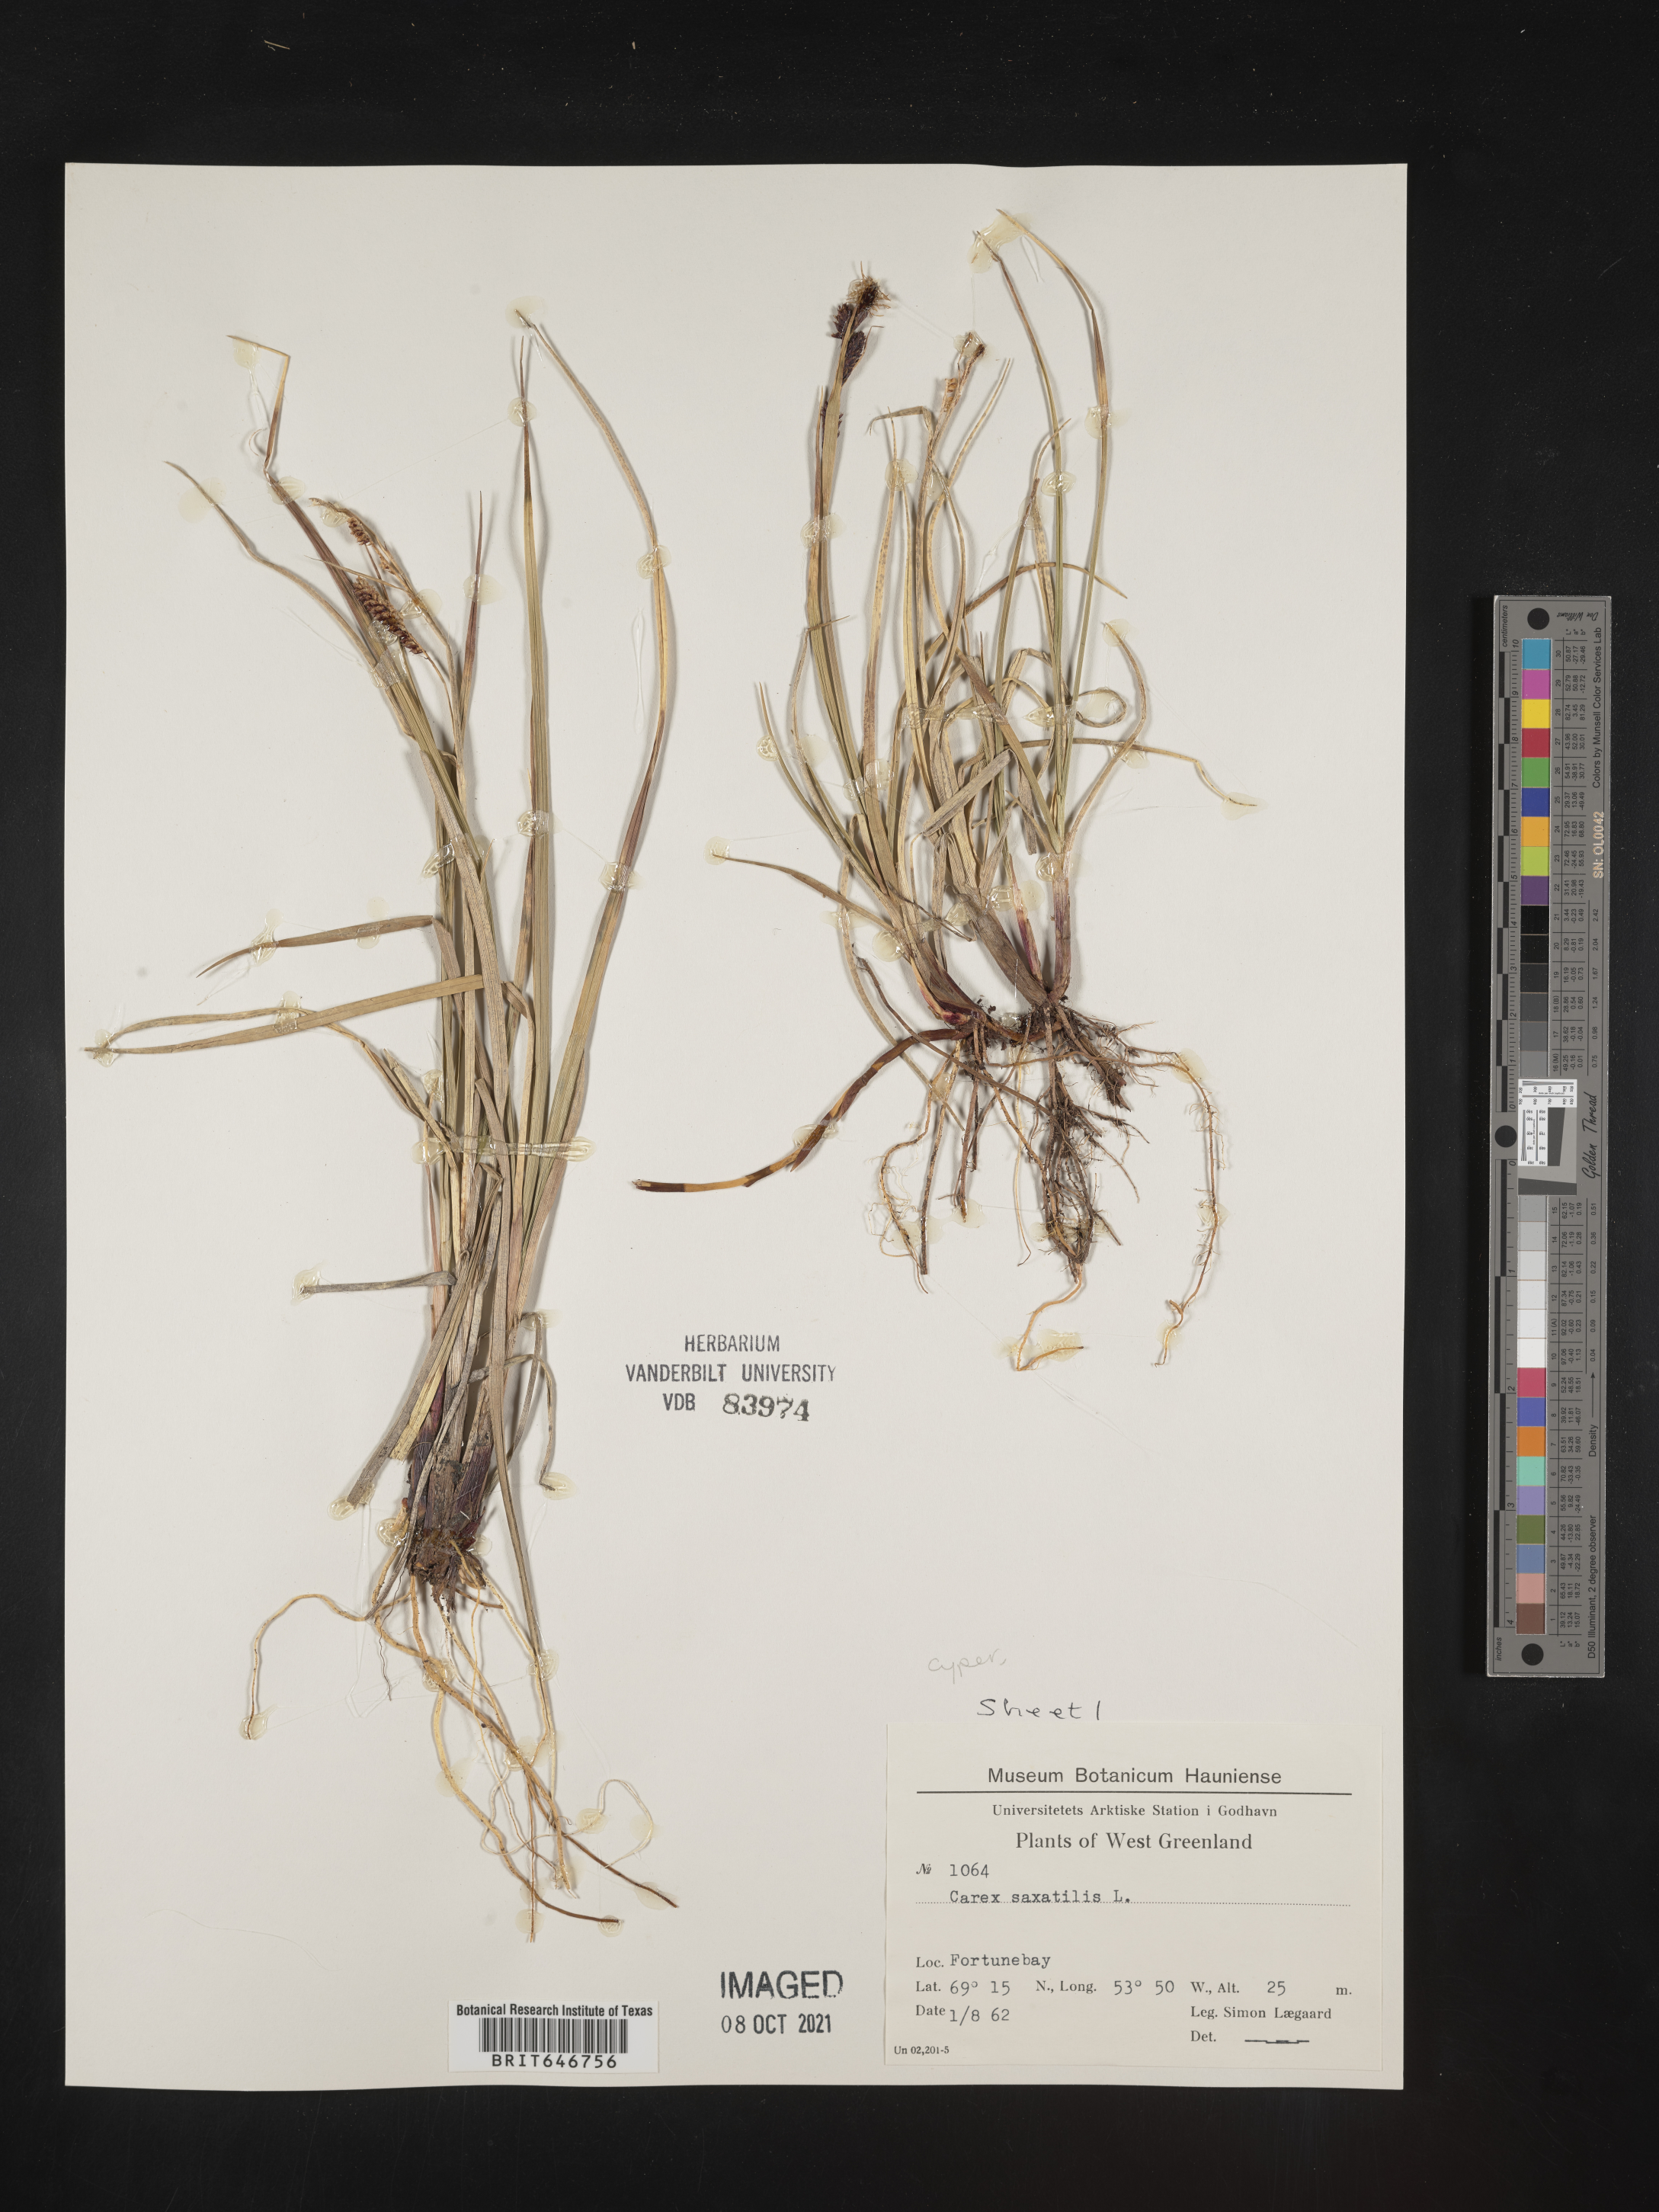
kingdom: Plantae
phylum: Tracheophyta
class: Liliopsida
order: Poales
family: Cyperaceae
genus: Carex
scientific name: Carex saxatilis
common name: Russet sedge
